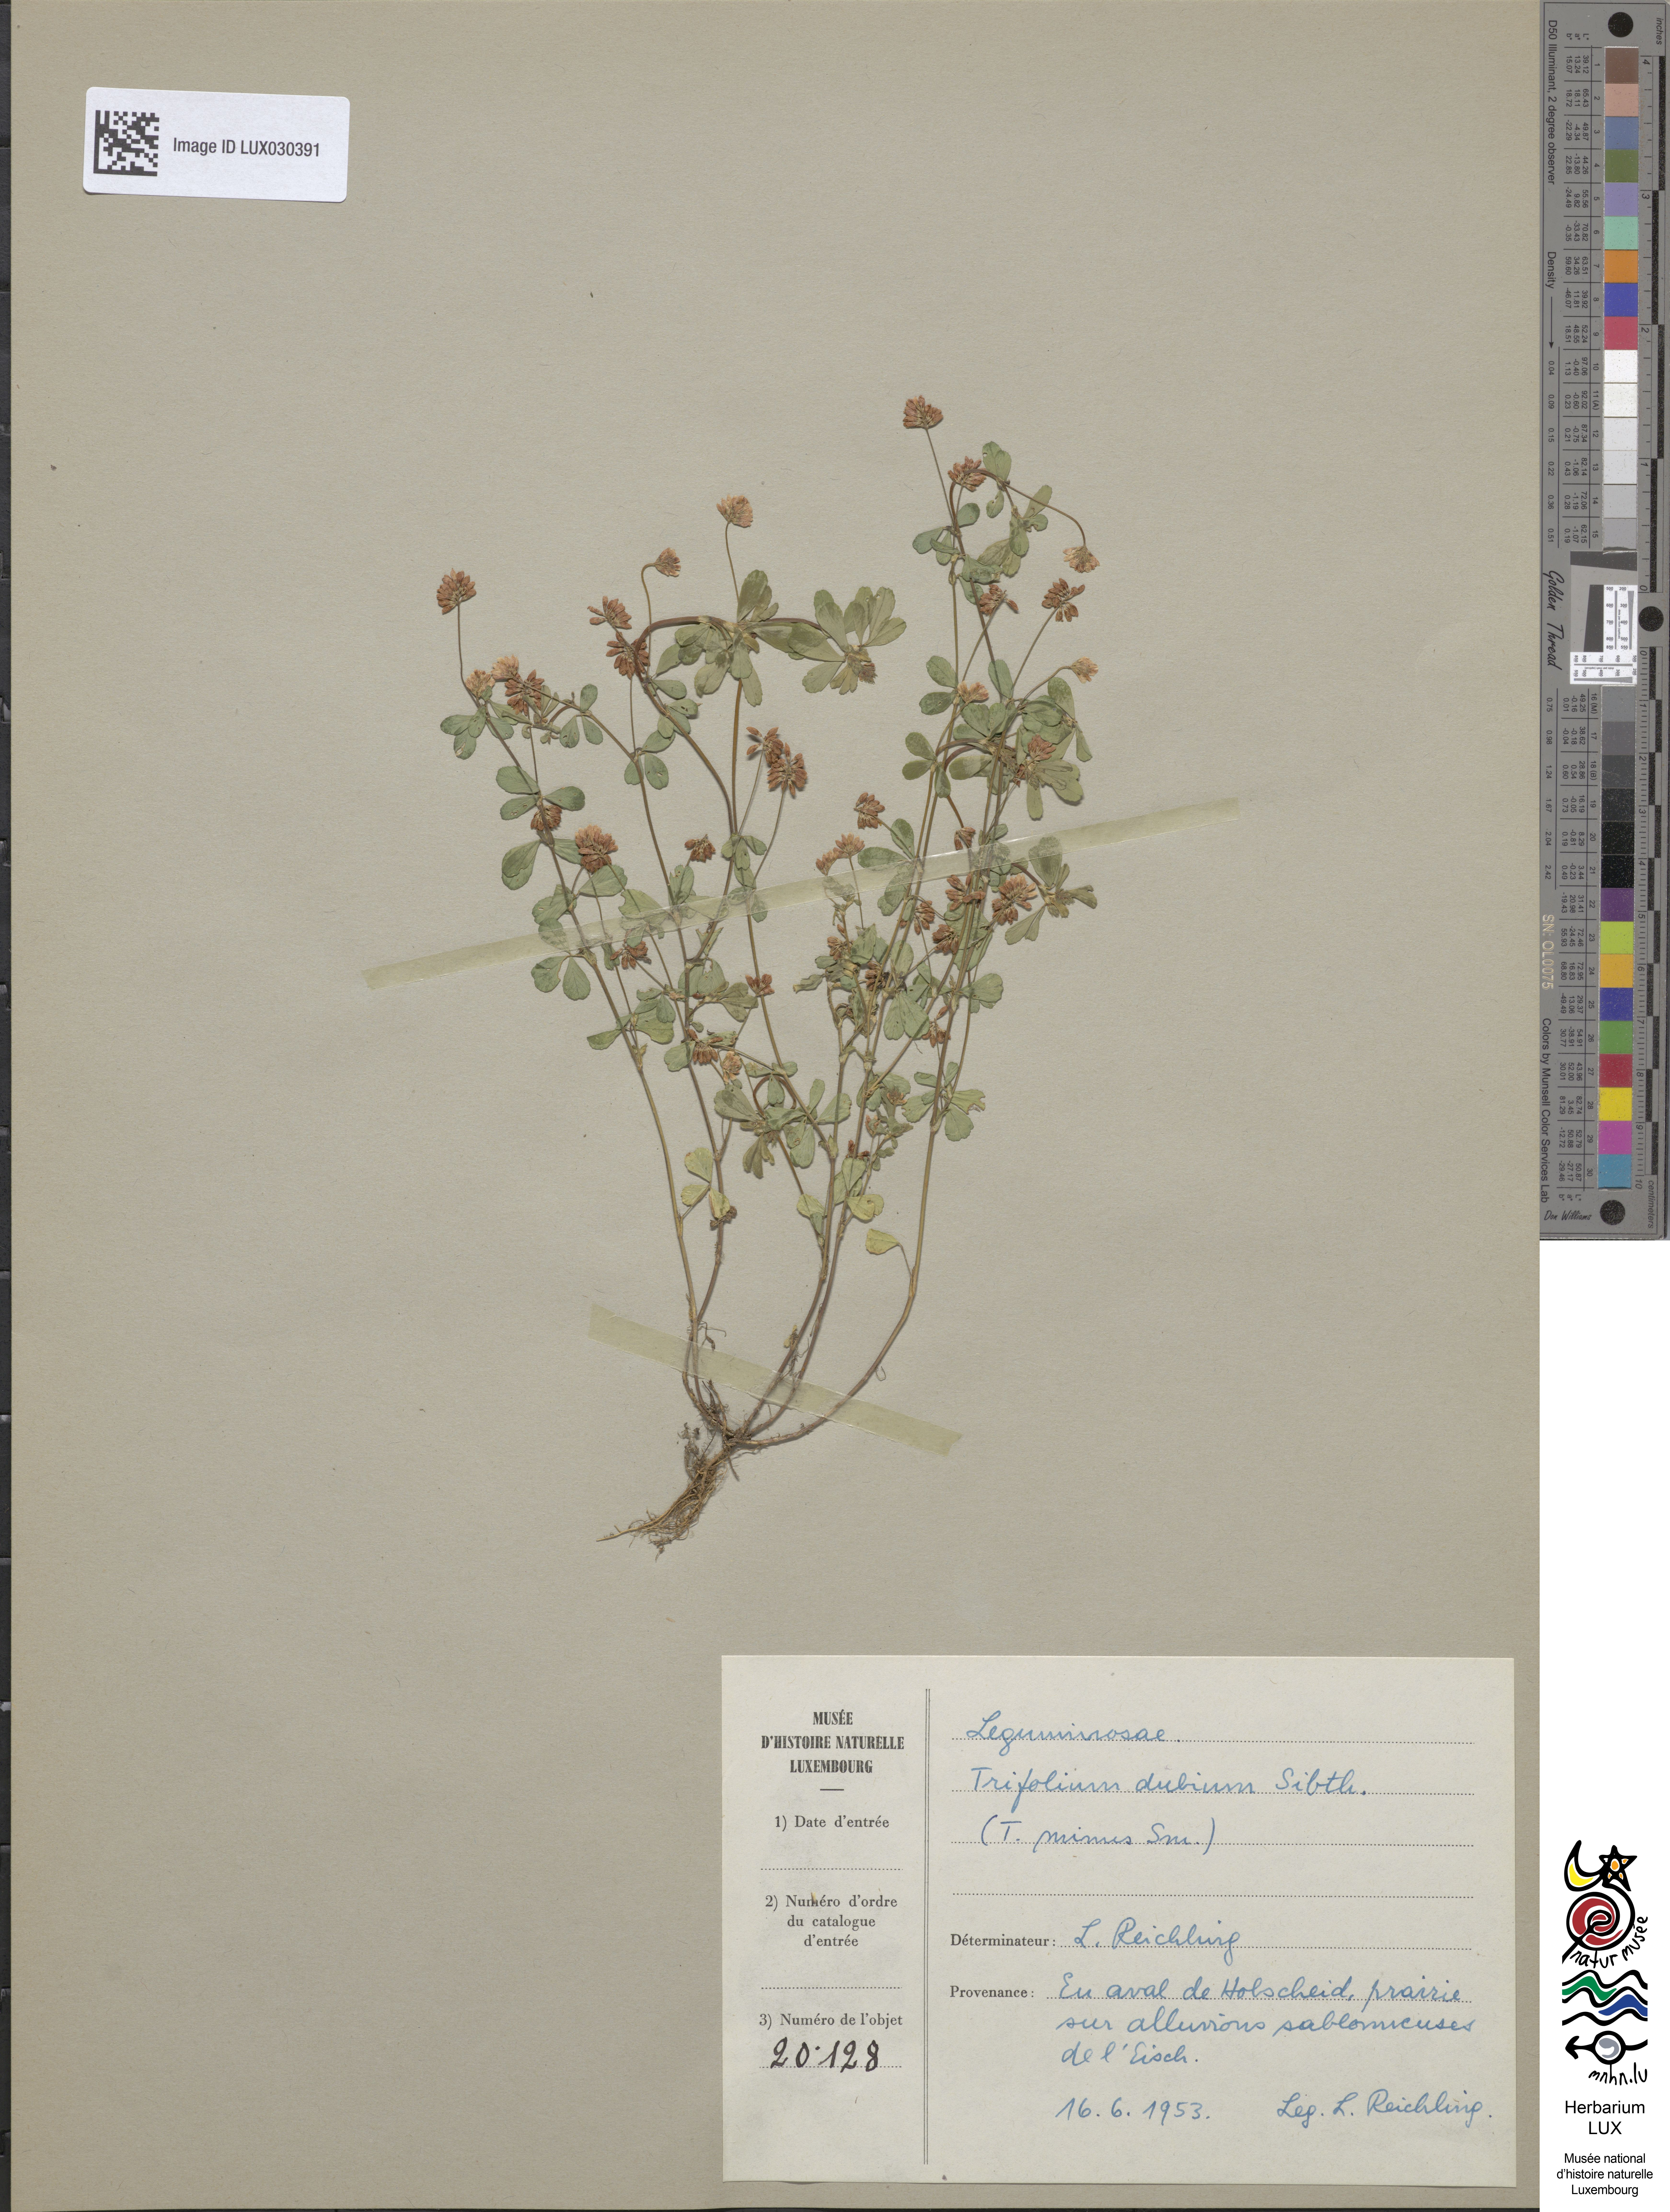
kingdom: Plantae
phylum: Tracheophyta
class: Magnoliopsida
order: Fabales
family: Fabaceae
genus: Trifolium
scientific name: Trifolium dubium
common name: Suckling clover
